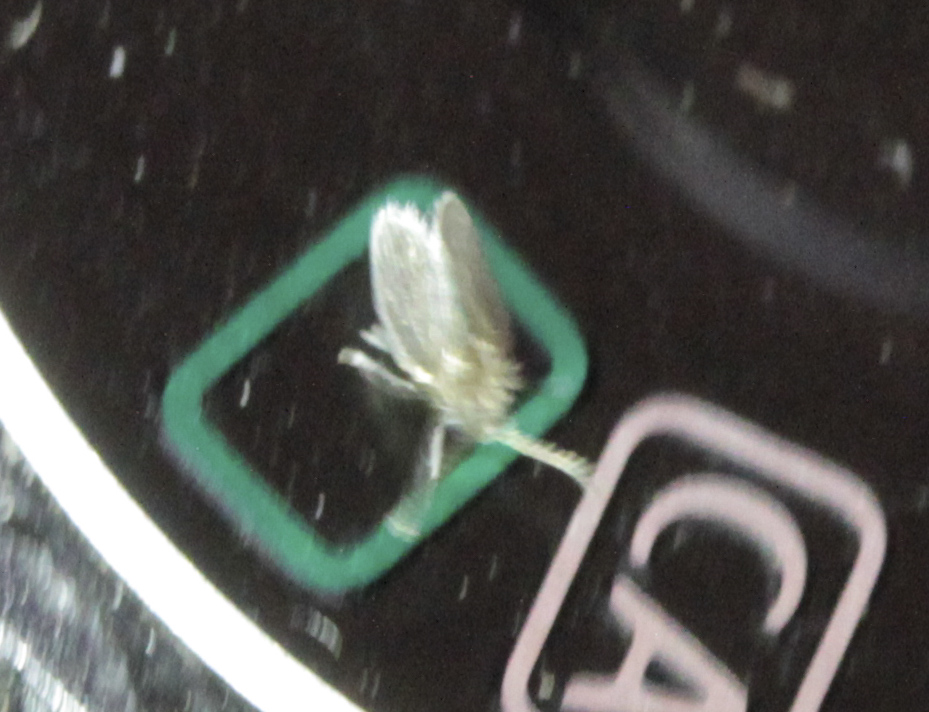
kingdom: Animalia
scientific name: Animalia
